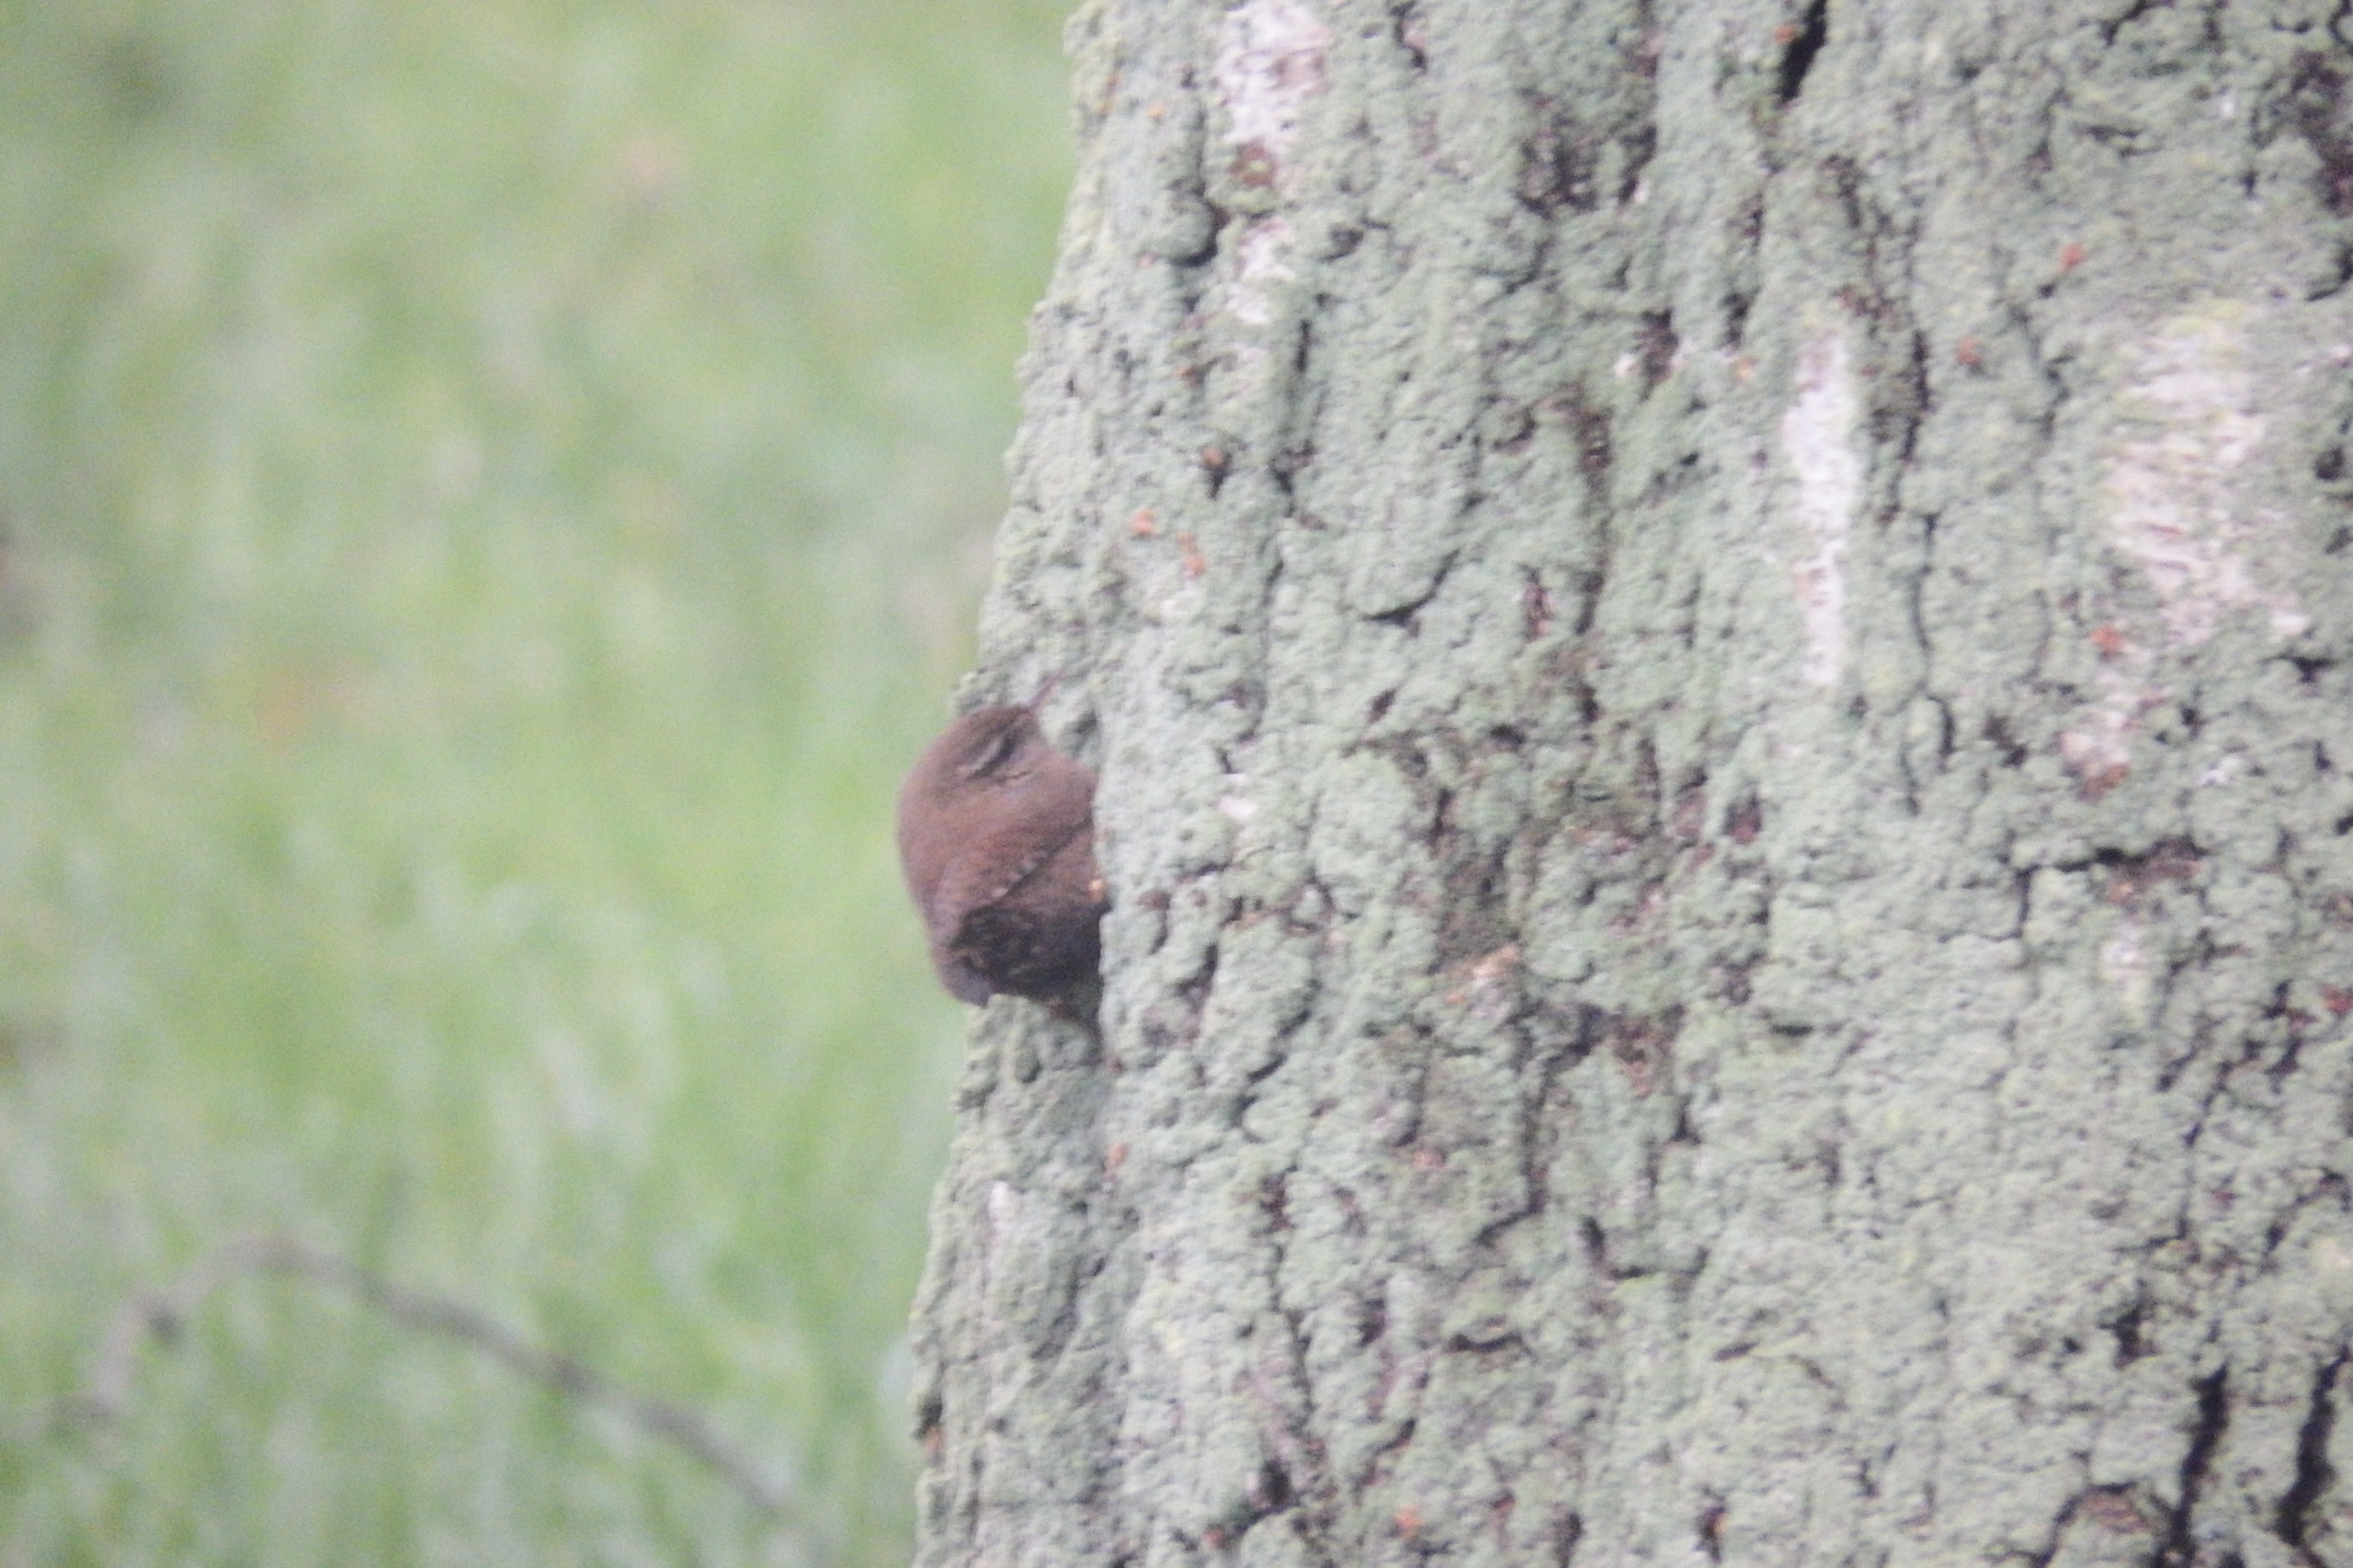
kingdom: Animalia
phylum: Chordata
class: Aves
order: Passeriformes
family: Troglodytidae
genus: Troglodytes
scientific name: Troglodytes troglodytes
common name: Gærdesmutte
